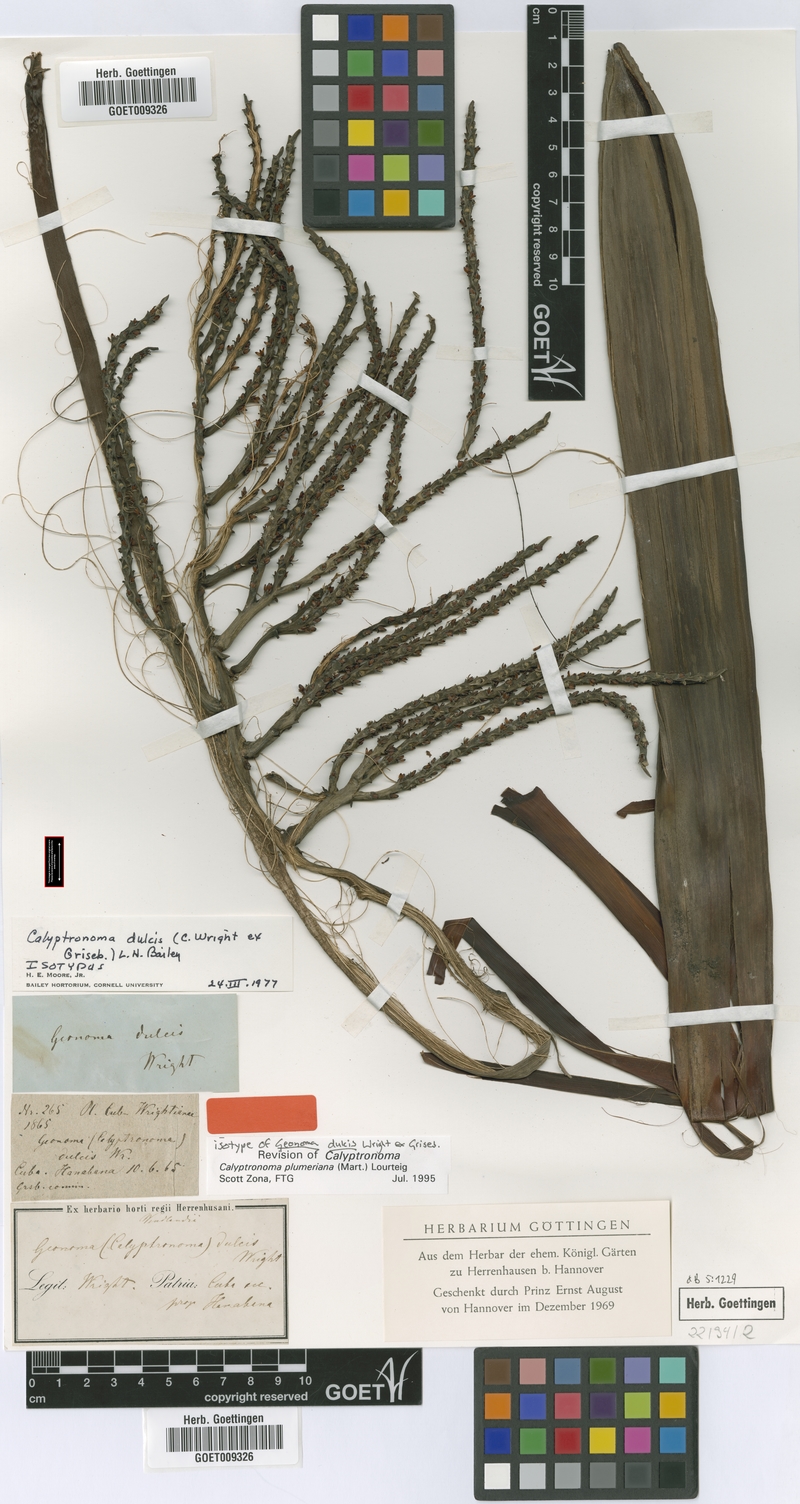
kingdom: Plantae
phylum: Tracheophyta
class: Liliopsida
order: Arecales
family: Arecaceae
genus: Calyptronoma
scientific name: Calyptronoma plumeriana
